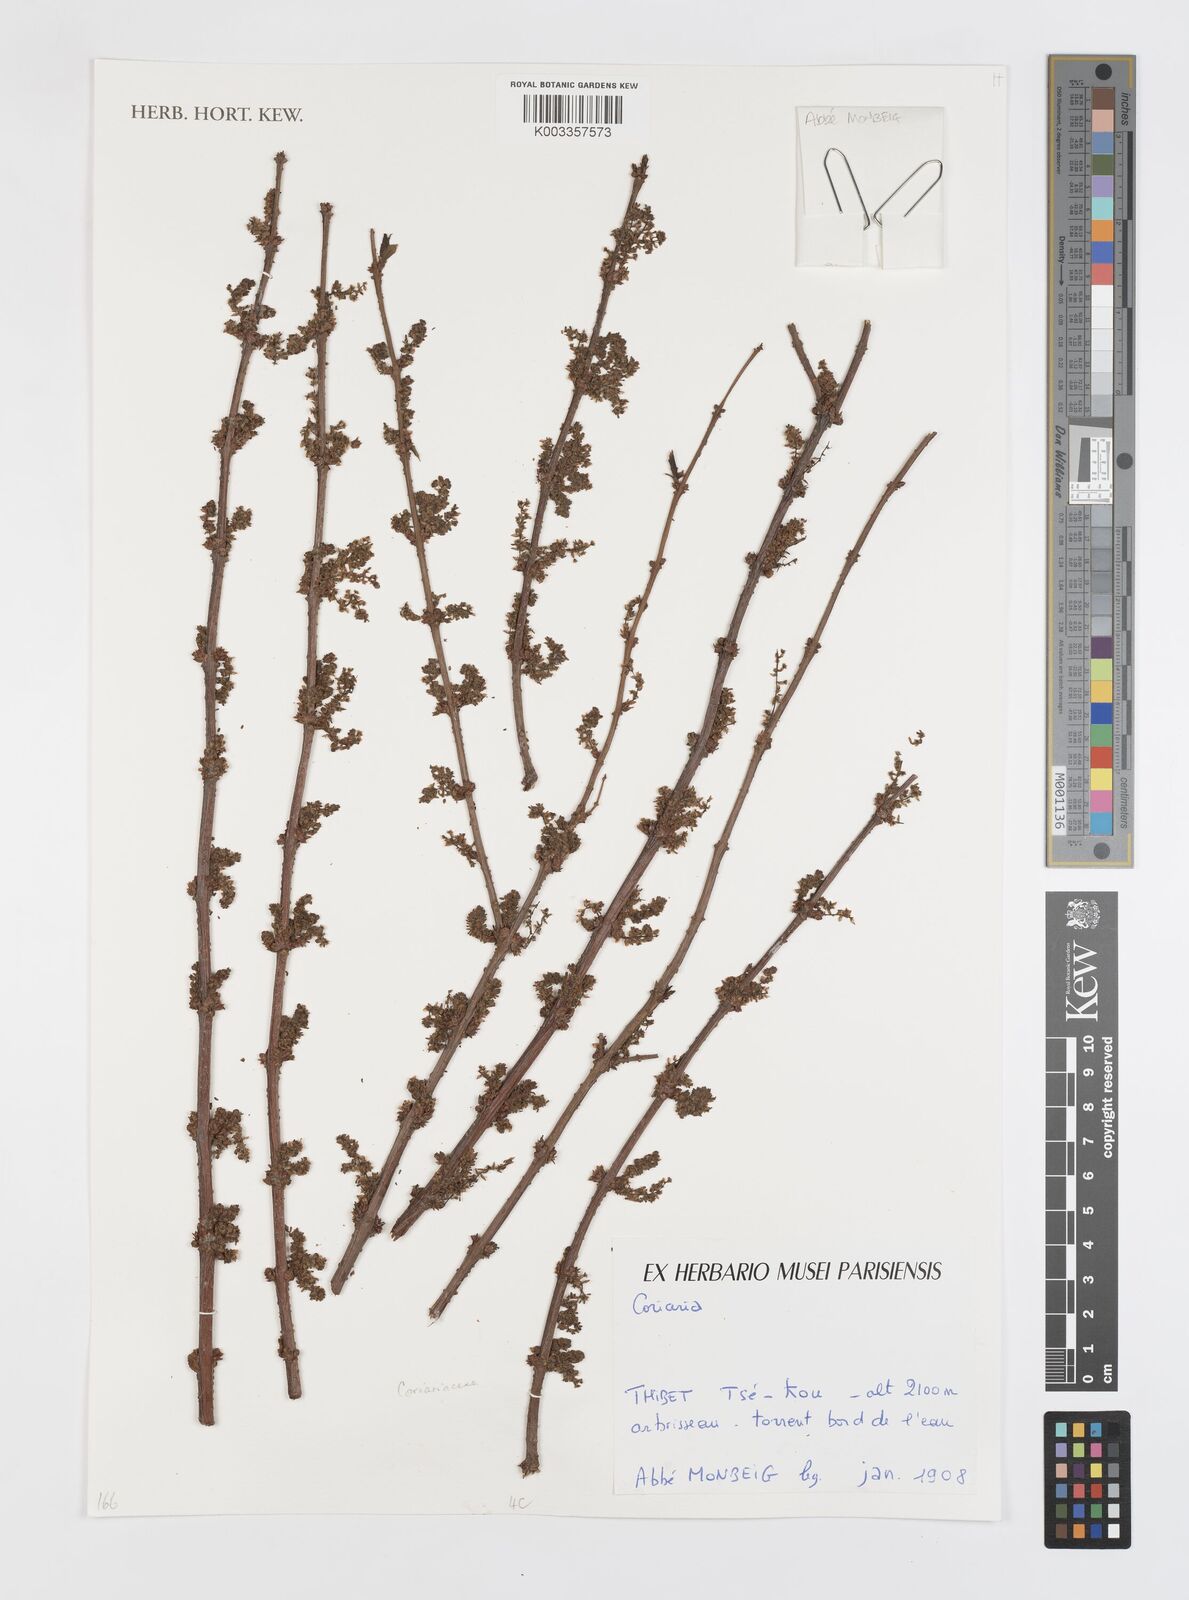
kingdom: Plantae
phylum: Tracheophyta
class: Magnoliopsida
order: Cucurbitales
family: Coriariaceae
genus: Coriaria
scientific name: Coriaria
